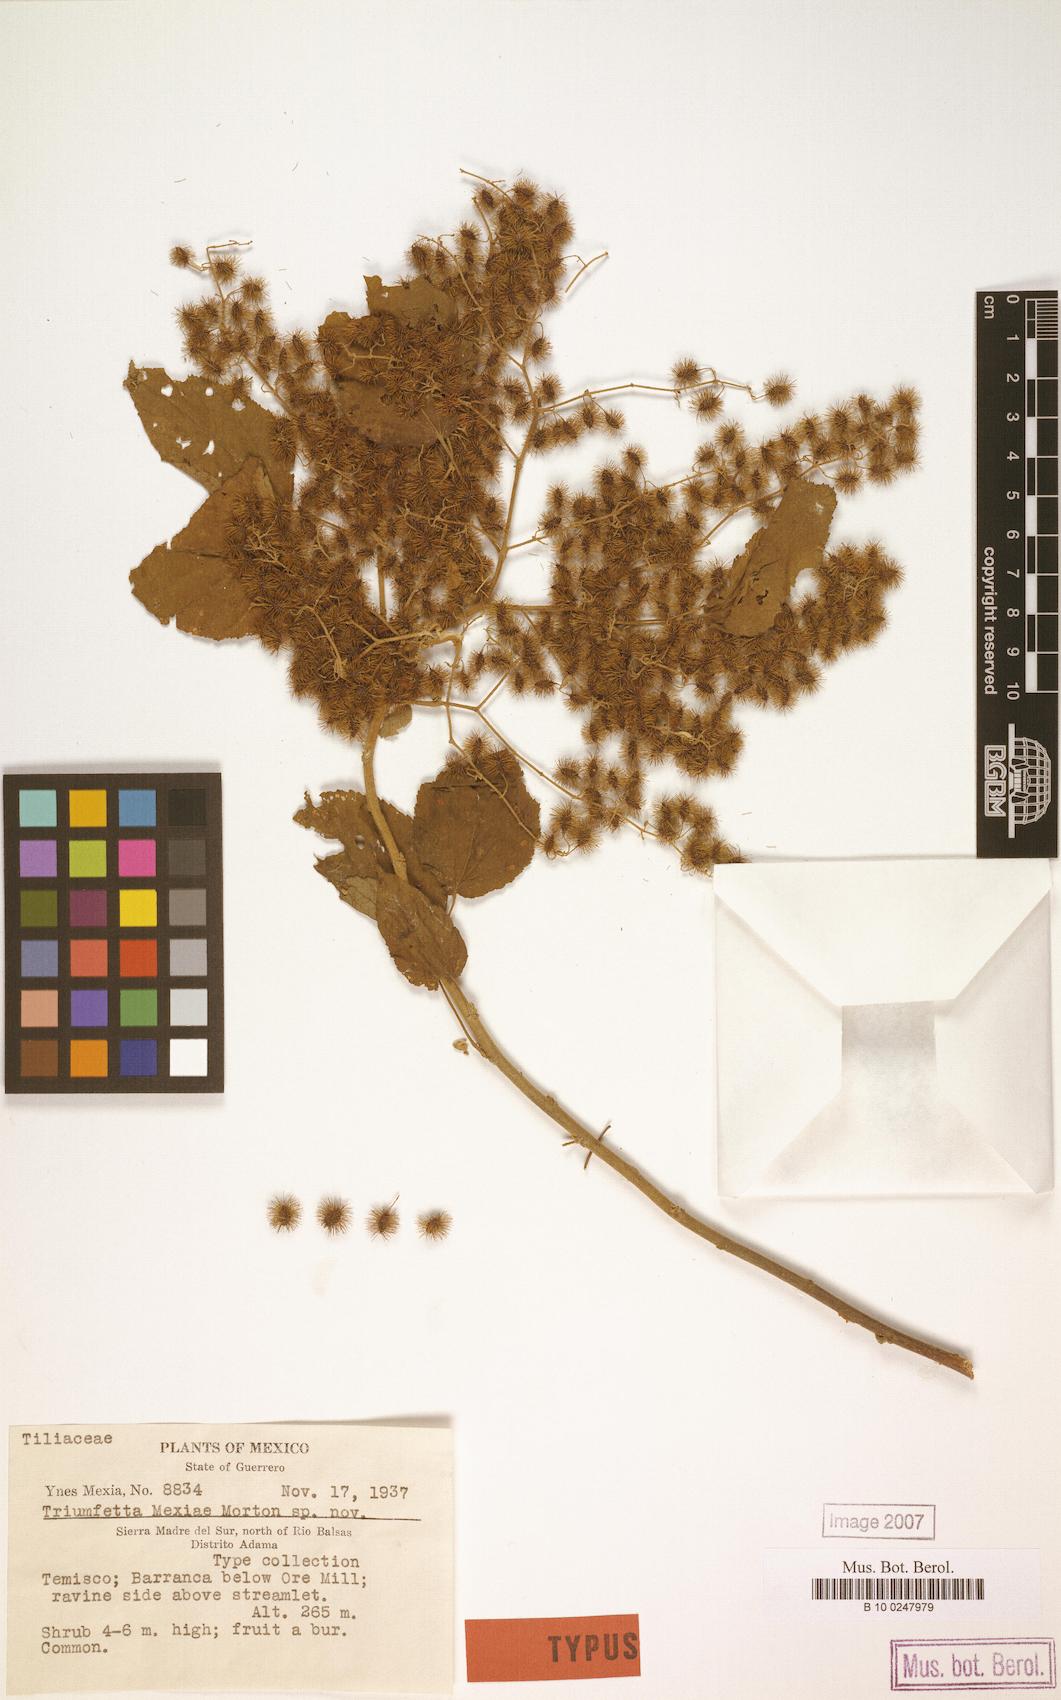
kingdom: Plantae
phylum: Tracheophyta
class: Magnoliopsida
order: Malvales
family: Malvaceae
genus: Triumfetta
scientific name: Triumfetta mexiae
